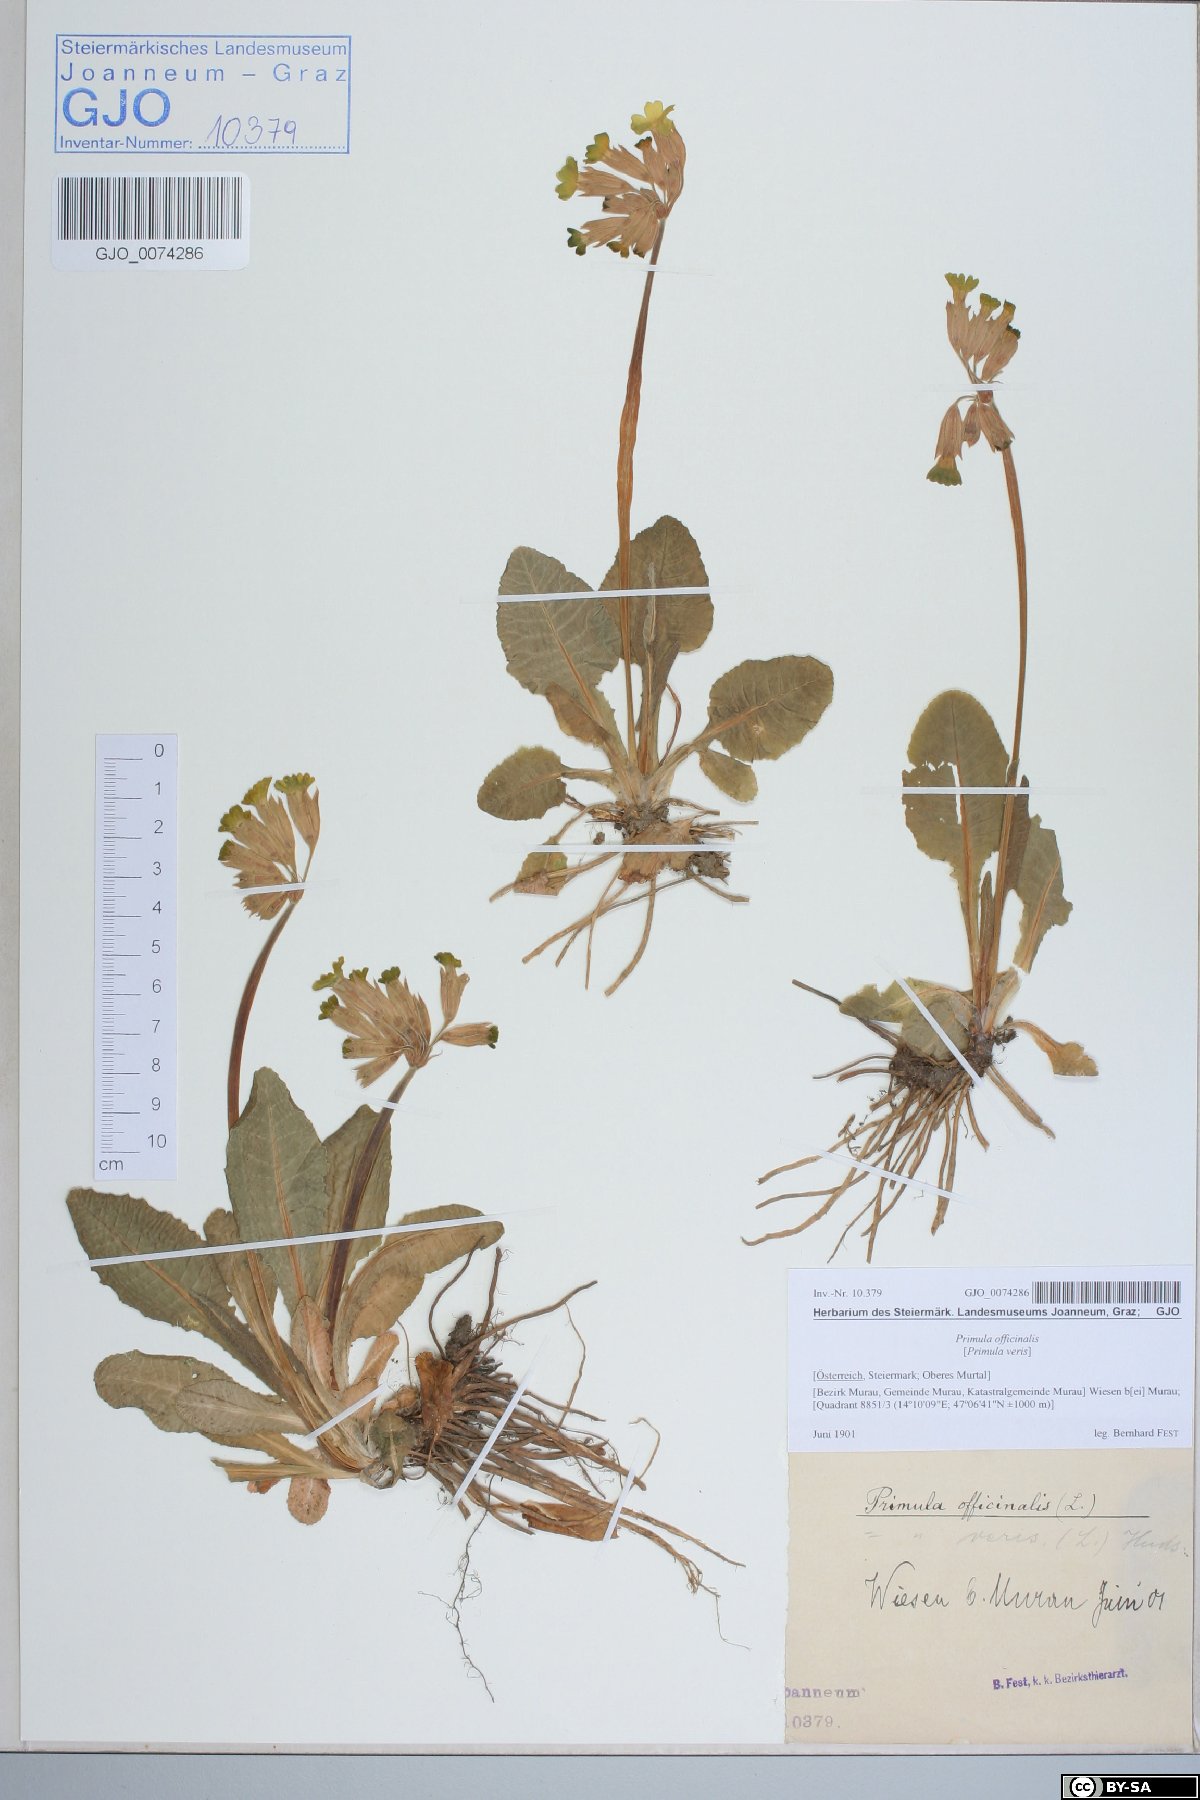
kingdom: Plantae
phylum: Tracheophyta
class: Magnoliopsida
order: Ericales
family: Primulaceae
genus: Primula
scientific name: Primula veris
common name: Cowslip
